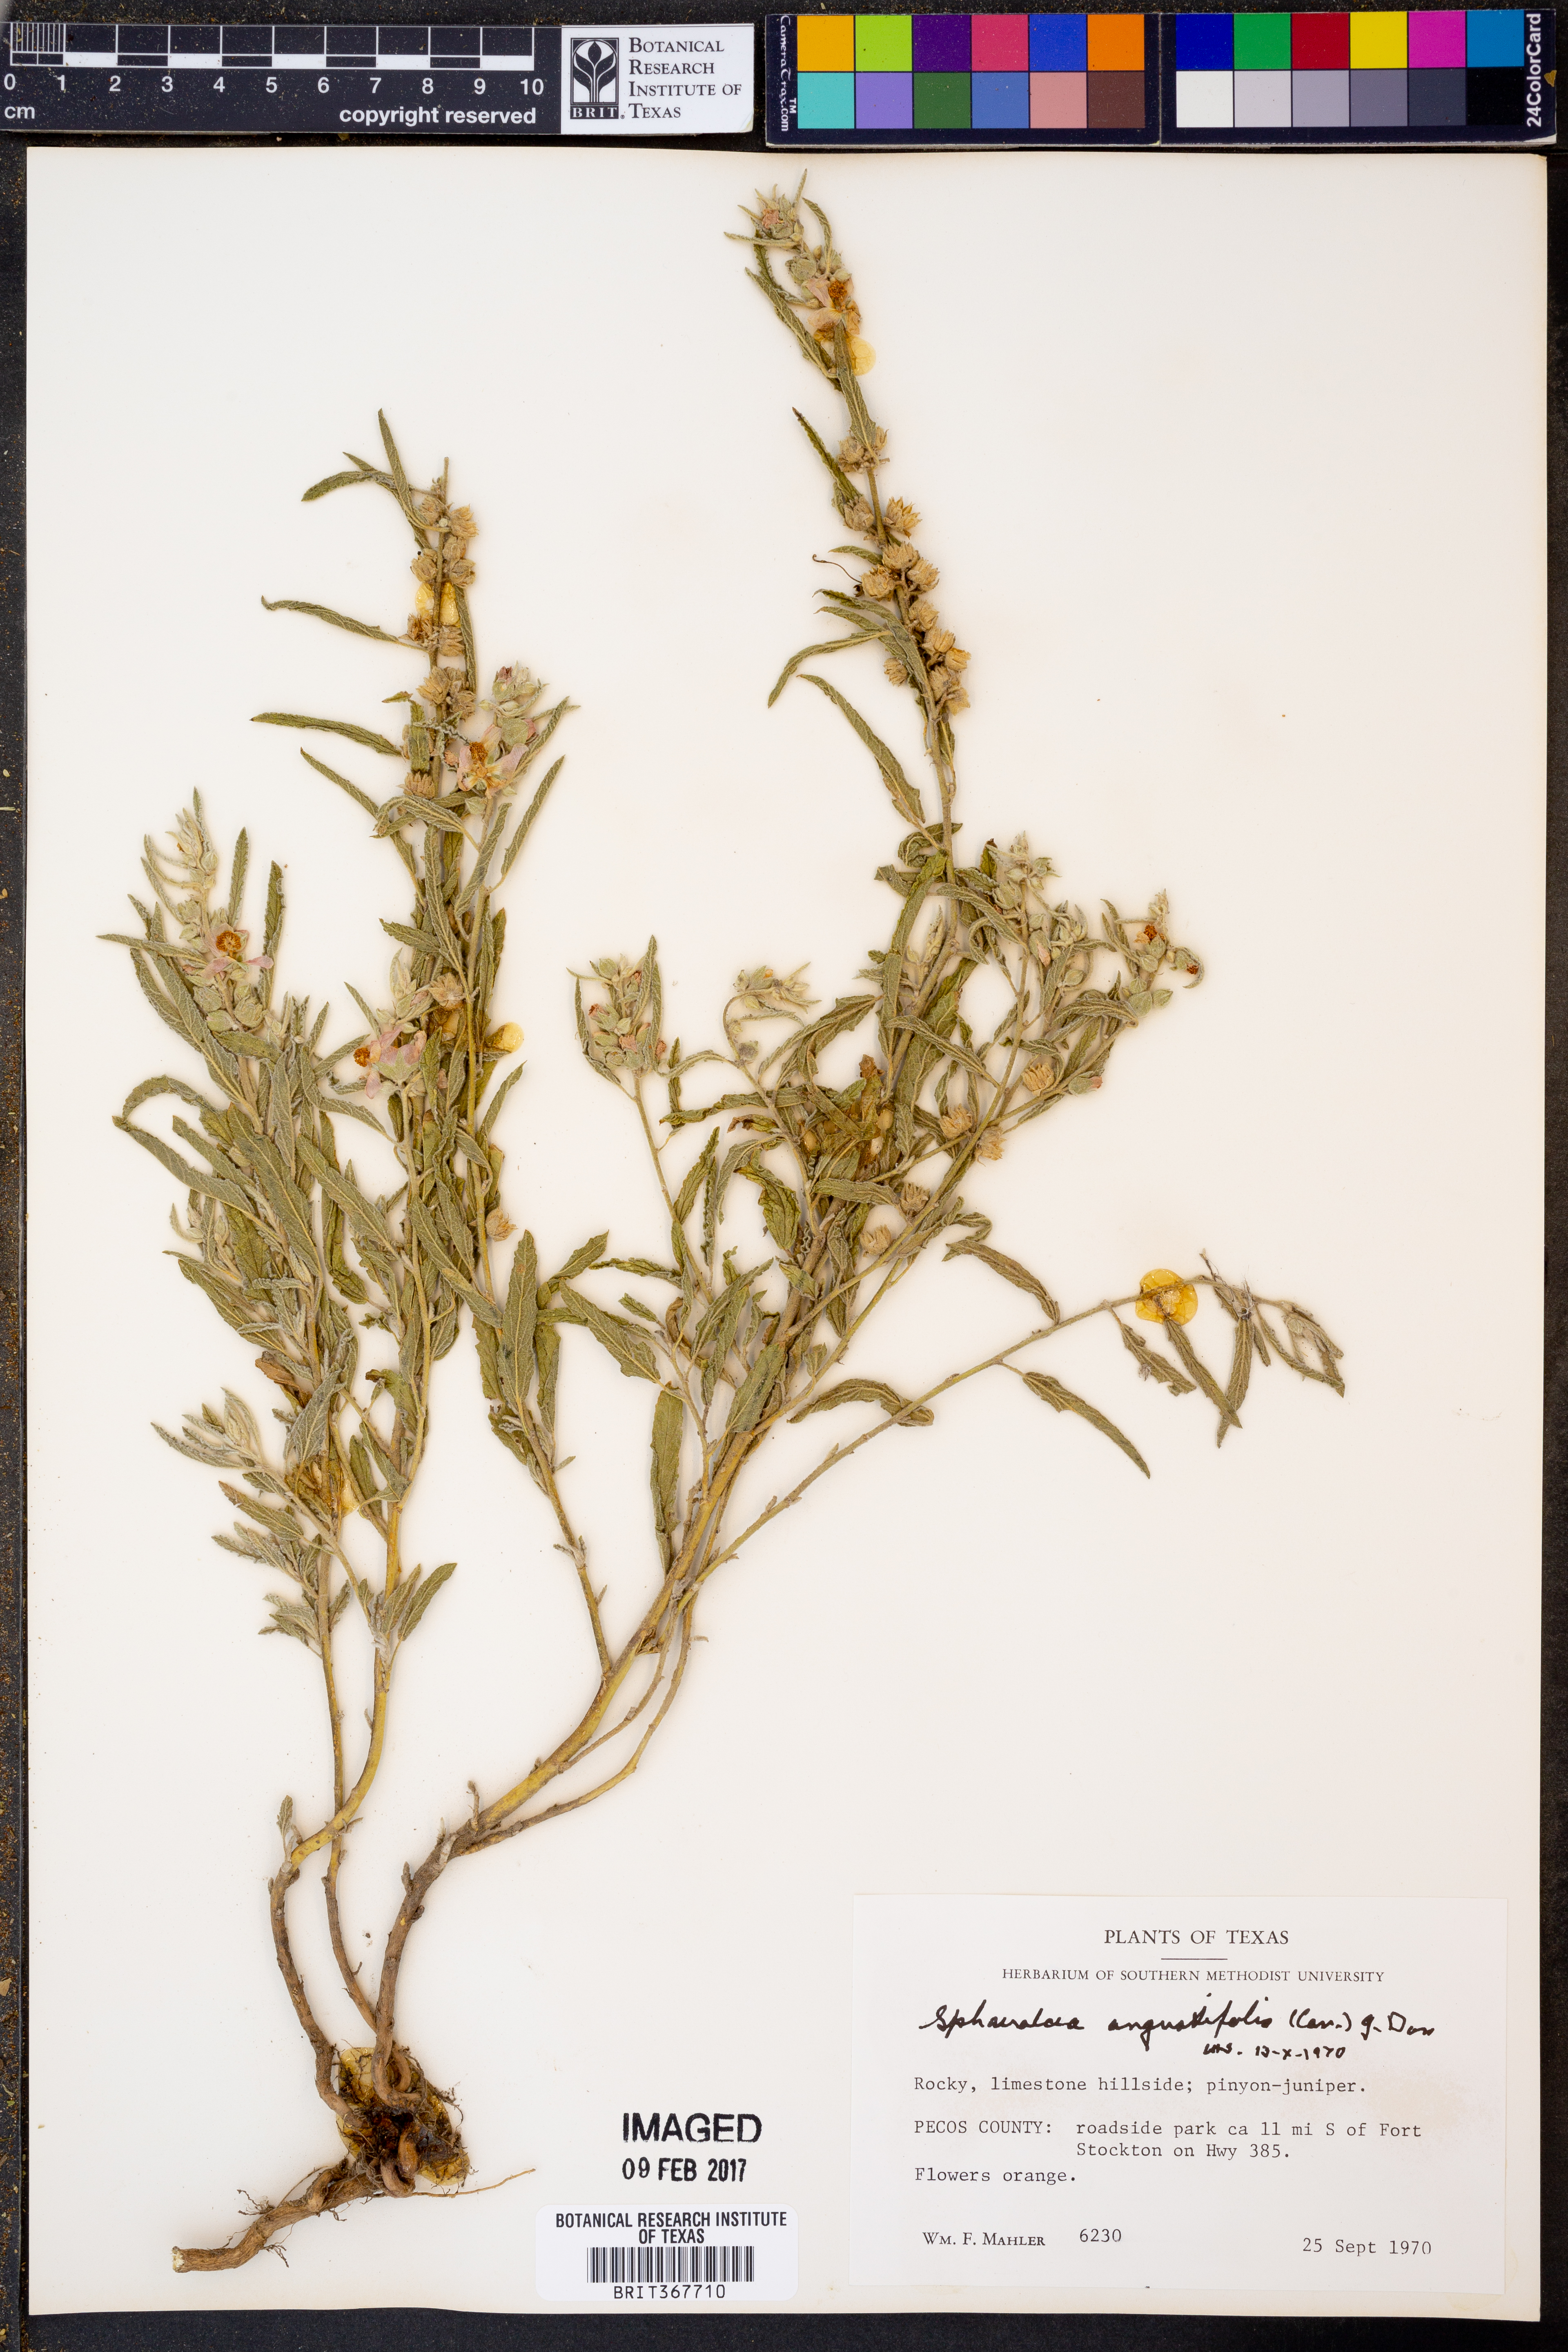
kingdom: Plantae
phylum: Tracheophyta
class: Magnoliopsida
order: Malvales
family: Malvaceae
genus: Sphaeralcea
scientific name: Sphaeralcea angustifolia
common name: Copper globe-mallow
